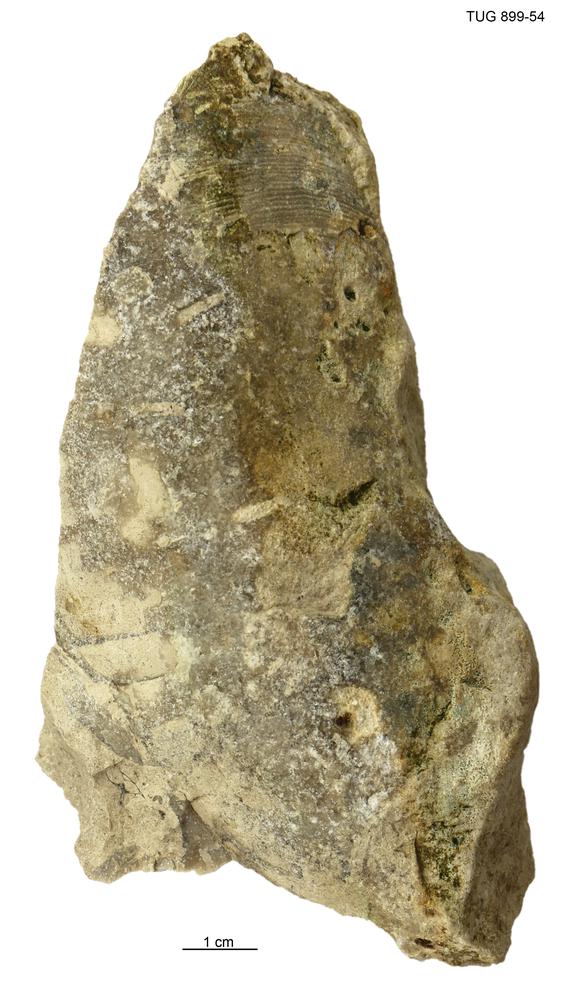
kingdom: Animalia
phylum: Mollusca
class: Cephalopoda
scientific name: Cephalopoda
